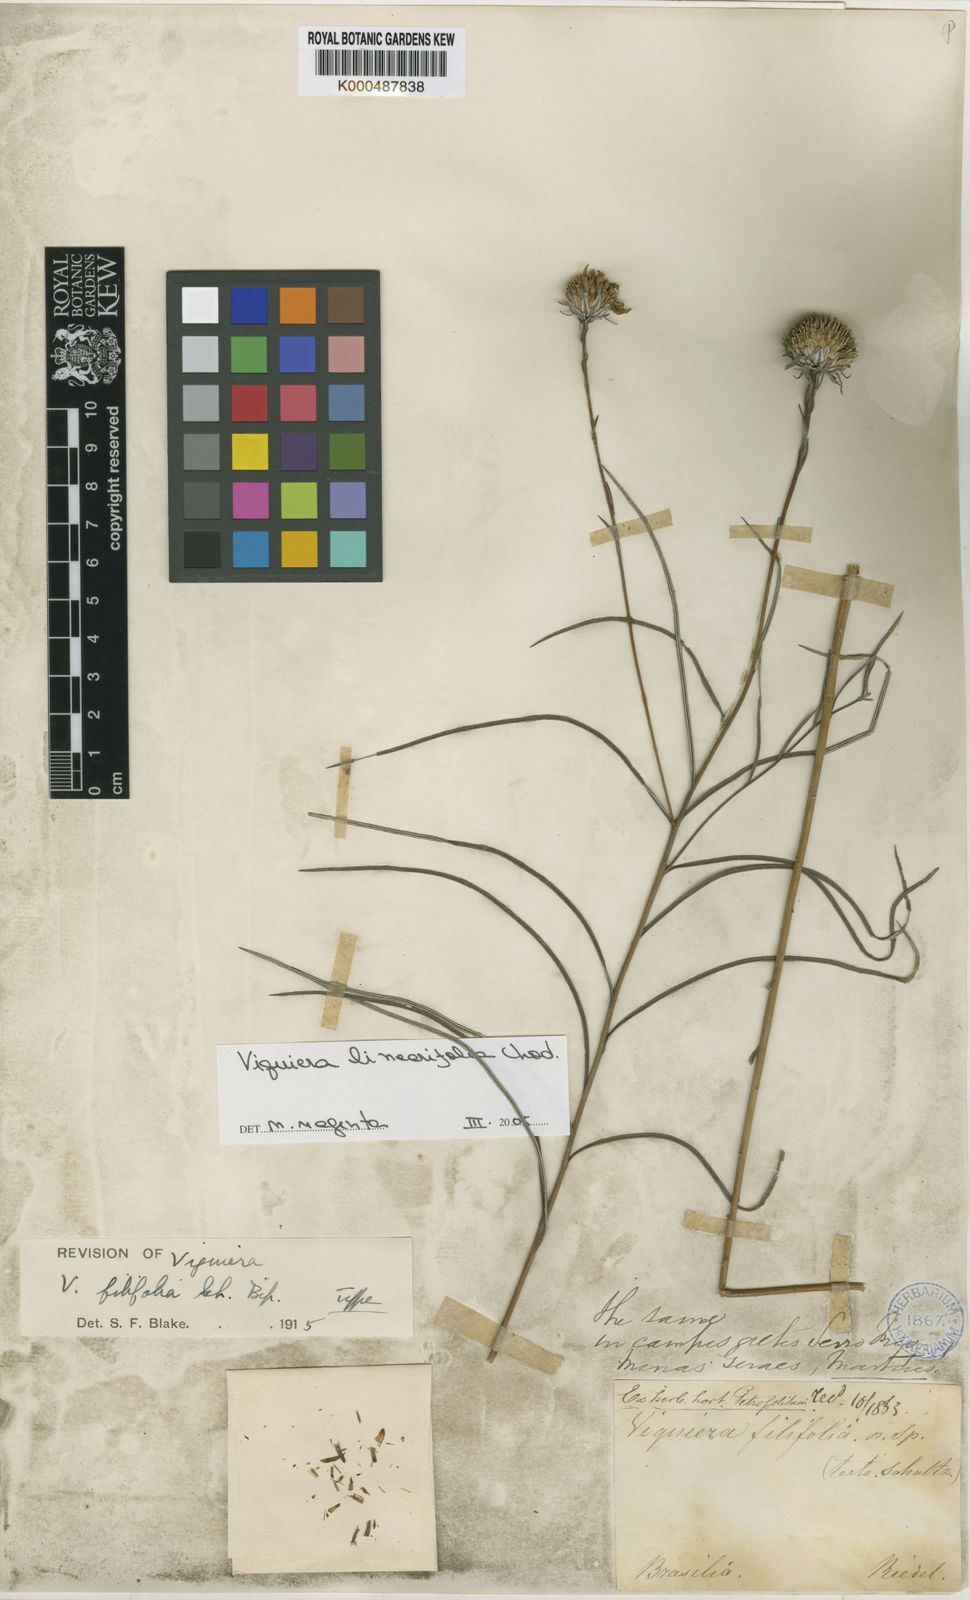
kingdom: Plantae
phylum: Tracheophyta
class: Magnoliopsida
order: Asterales
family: Asteraceae
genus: Viguiera
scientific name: Viguiera
